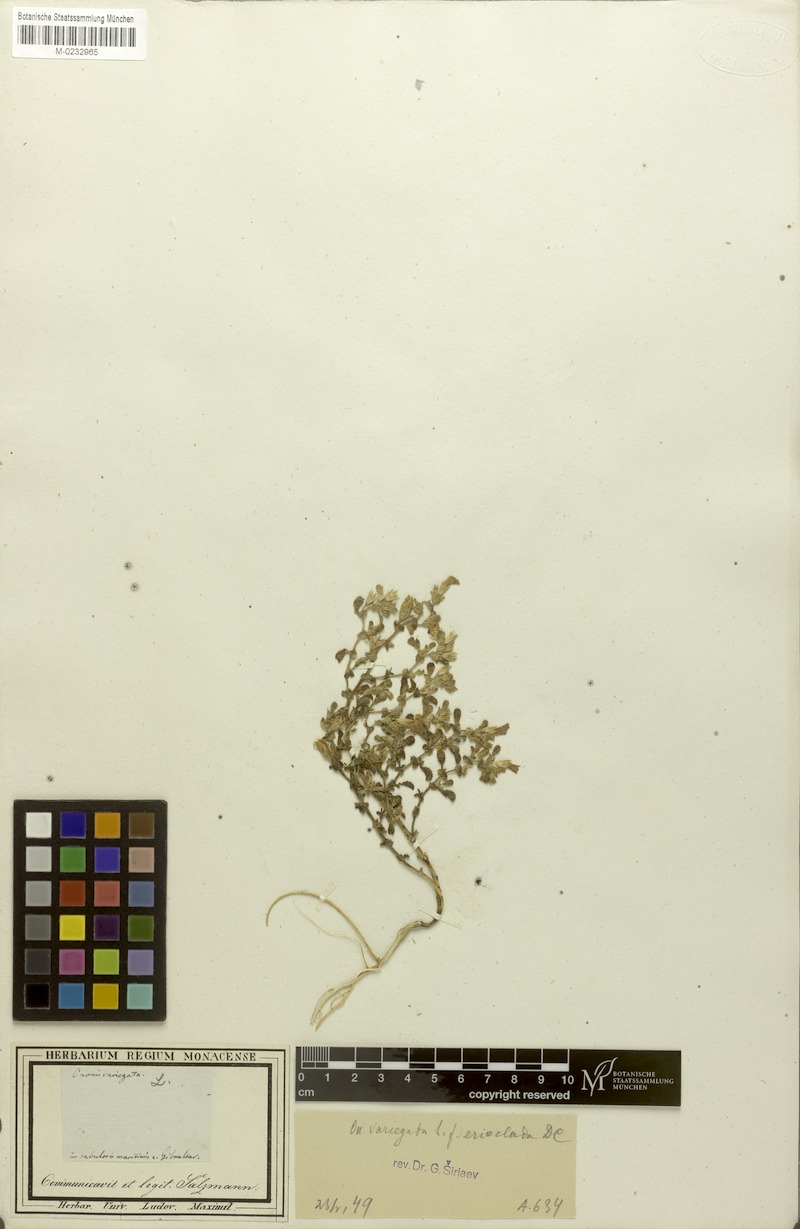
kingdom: Plantae
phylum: Tracheophyta
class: Magnoliopsida
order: Fabales
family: Fabaceae
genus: Ononis
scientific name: Ononis variegata
